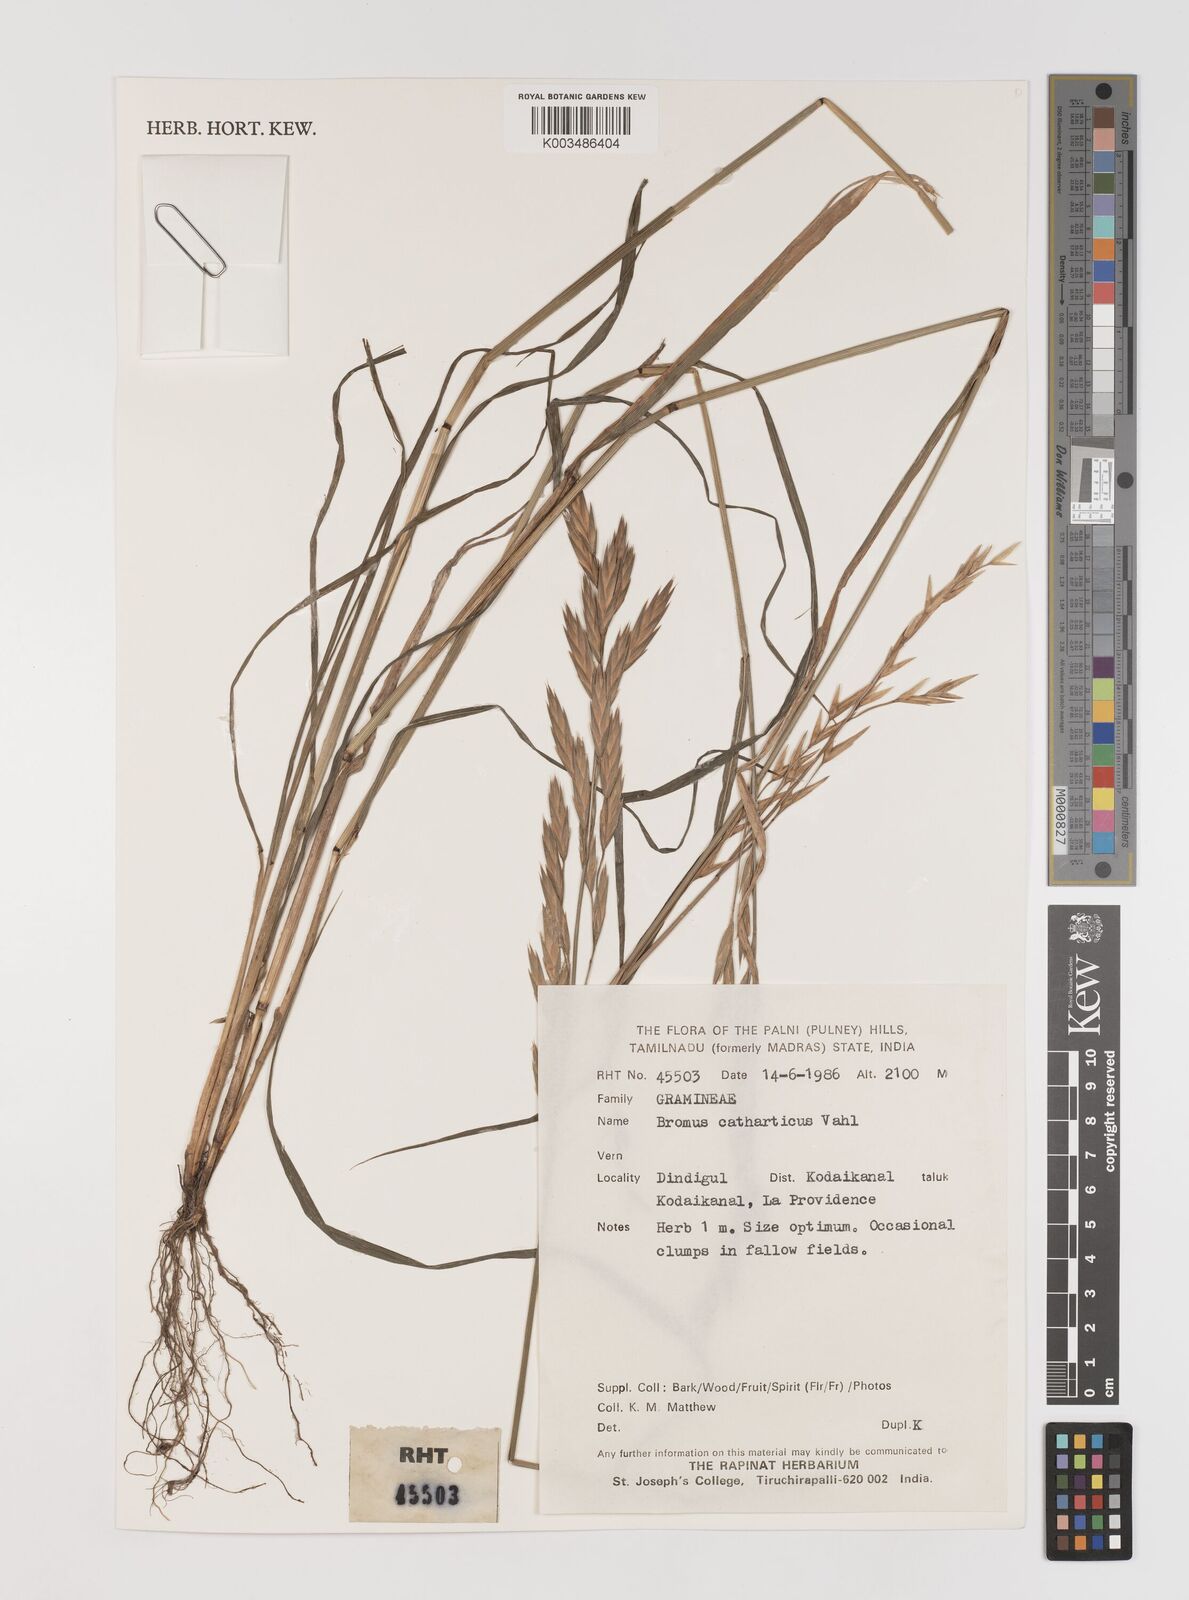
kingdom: Plantae
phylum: Tracheophyta
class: Liliopsida
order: Poales
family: Poaceae
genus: Bromus
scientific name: Bromus catharticus
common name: Rescuegrass
